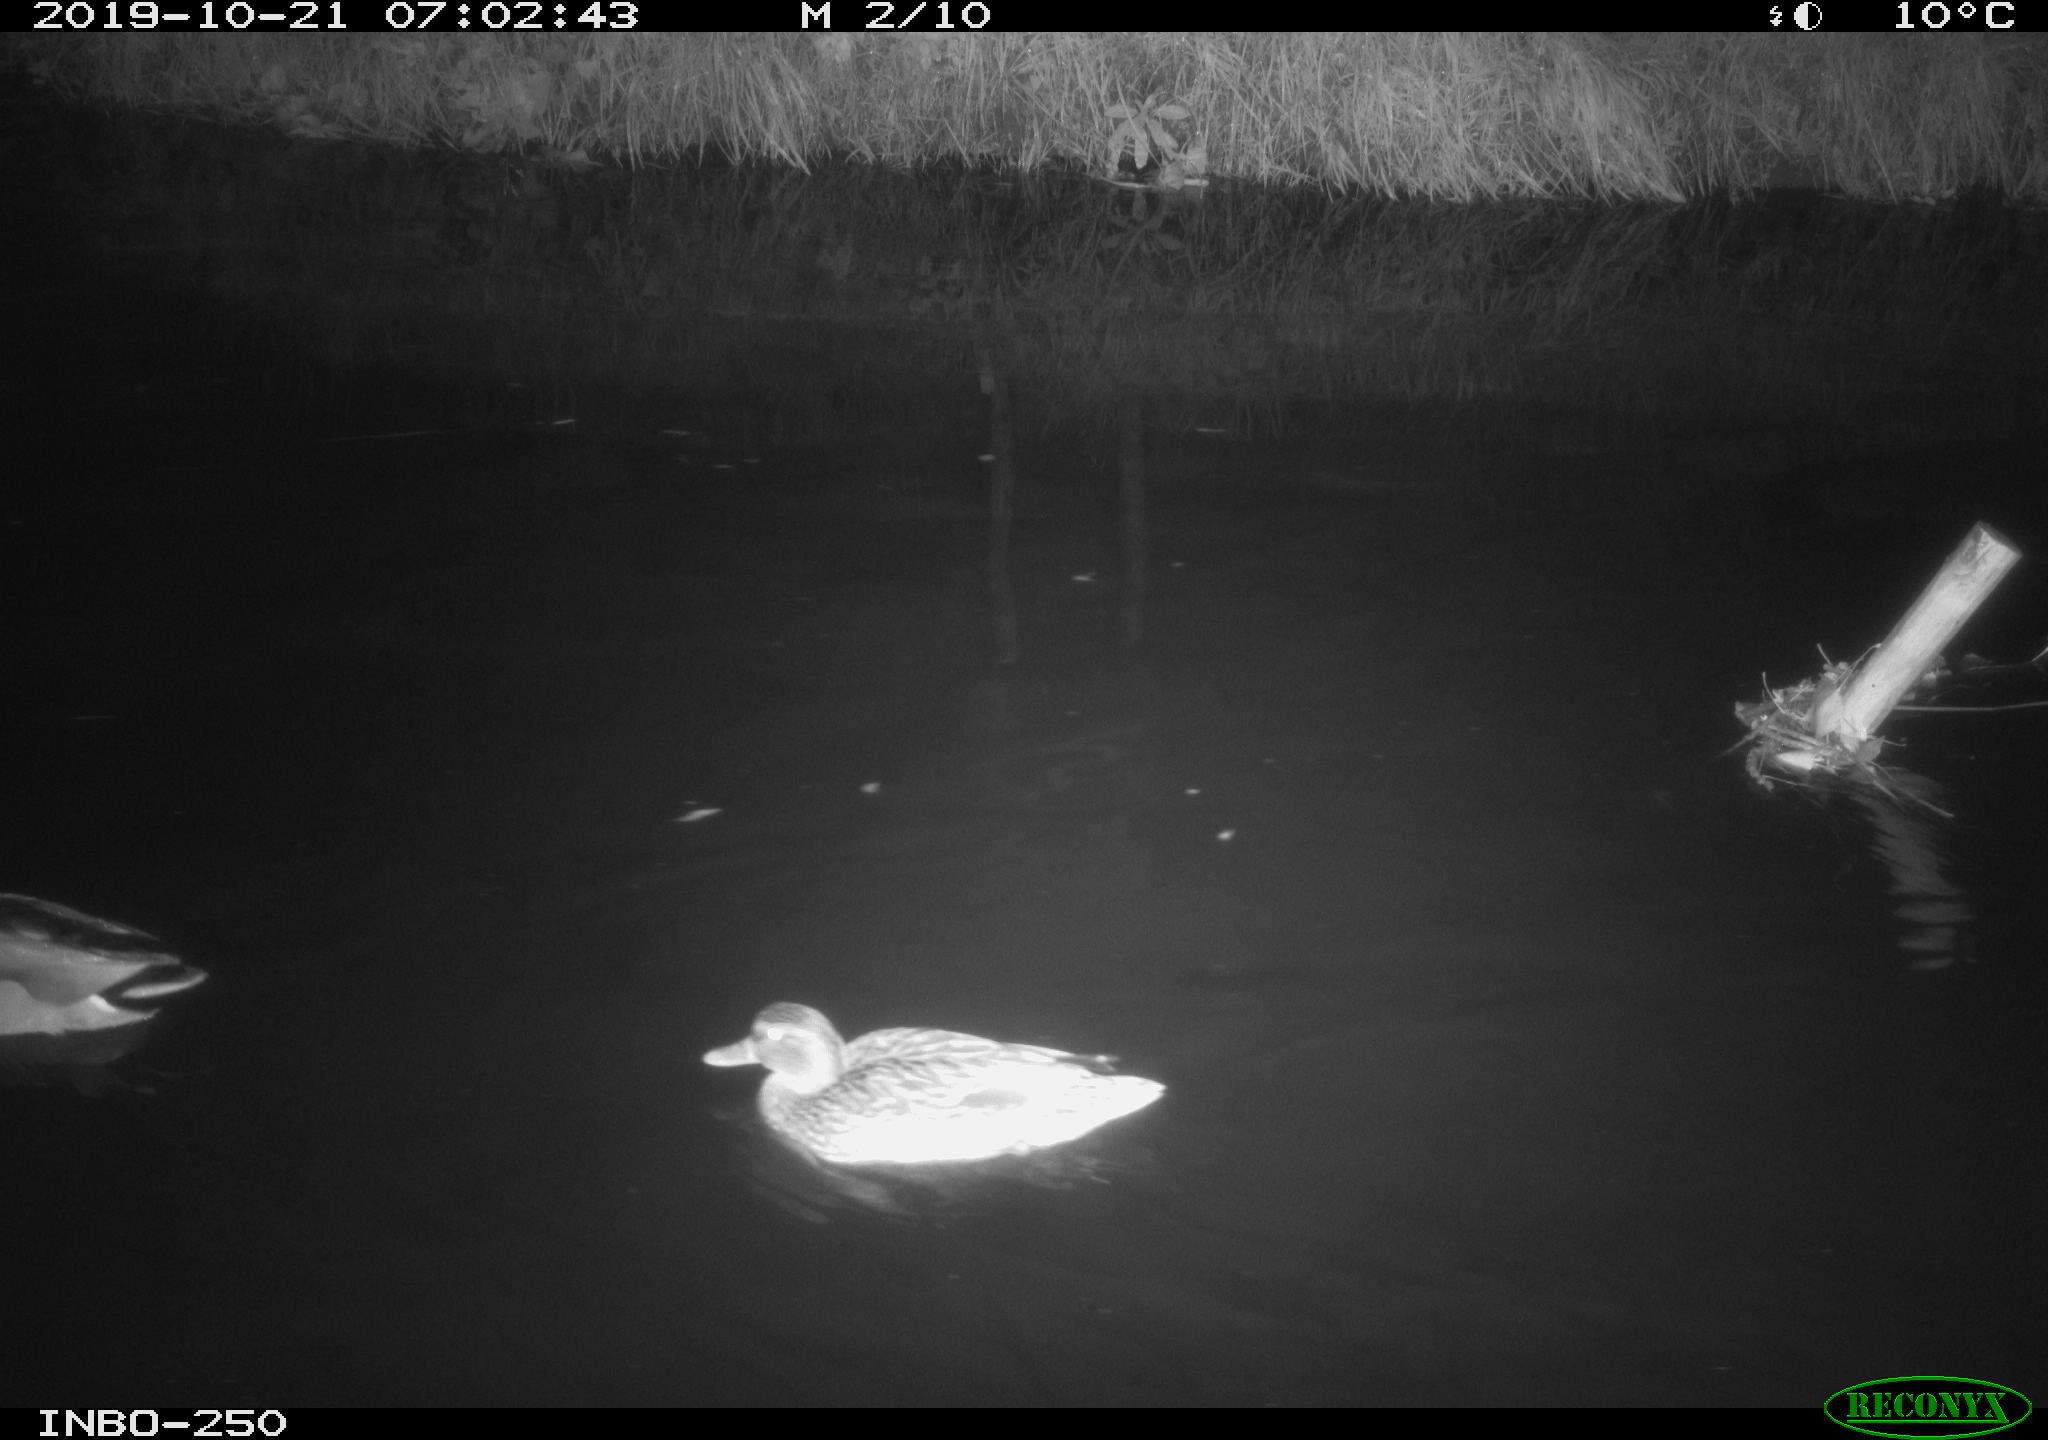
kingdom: Animalia
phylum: Chordata
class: Aves
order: Anseriformes
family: Anatidae
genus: Anas
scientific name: Anas platyrhynchos
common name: Mallard
